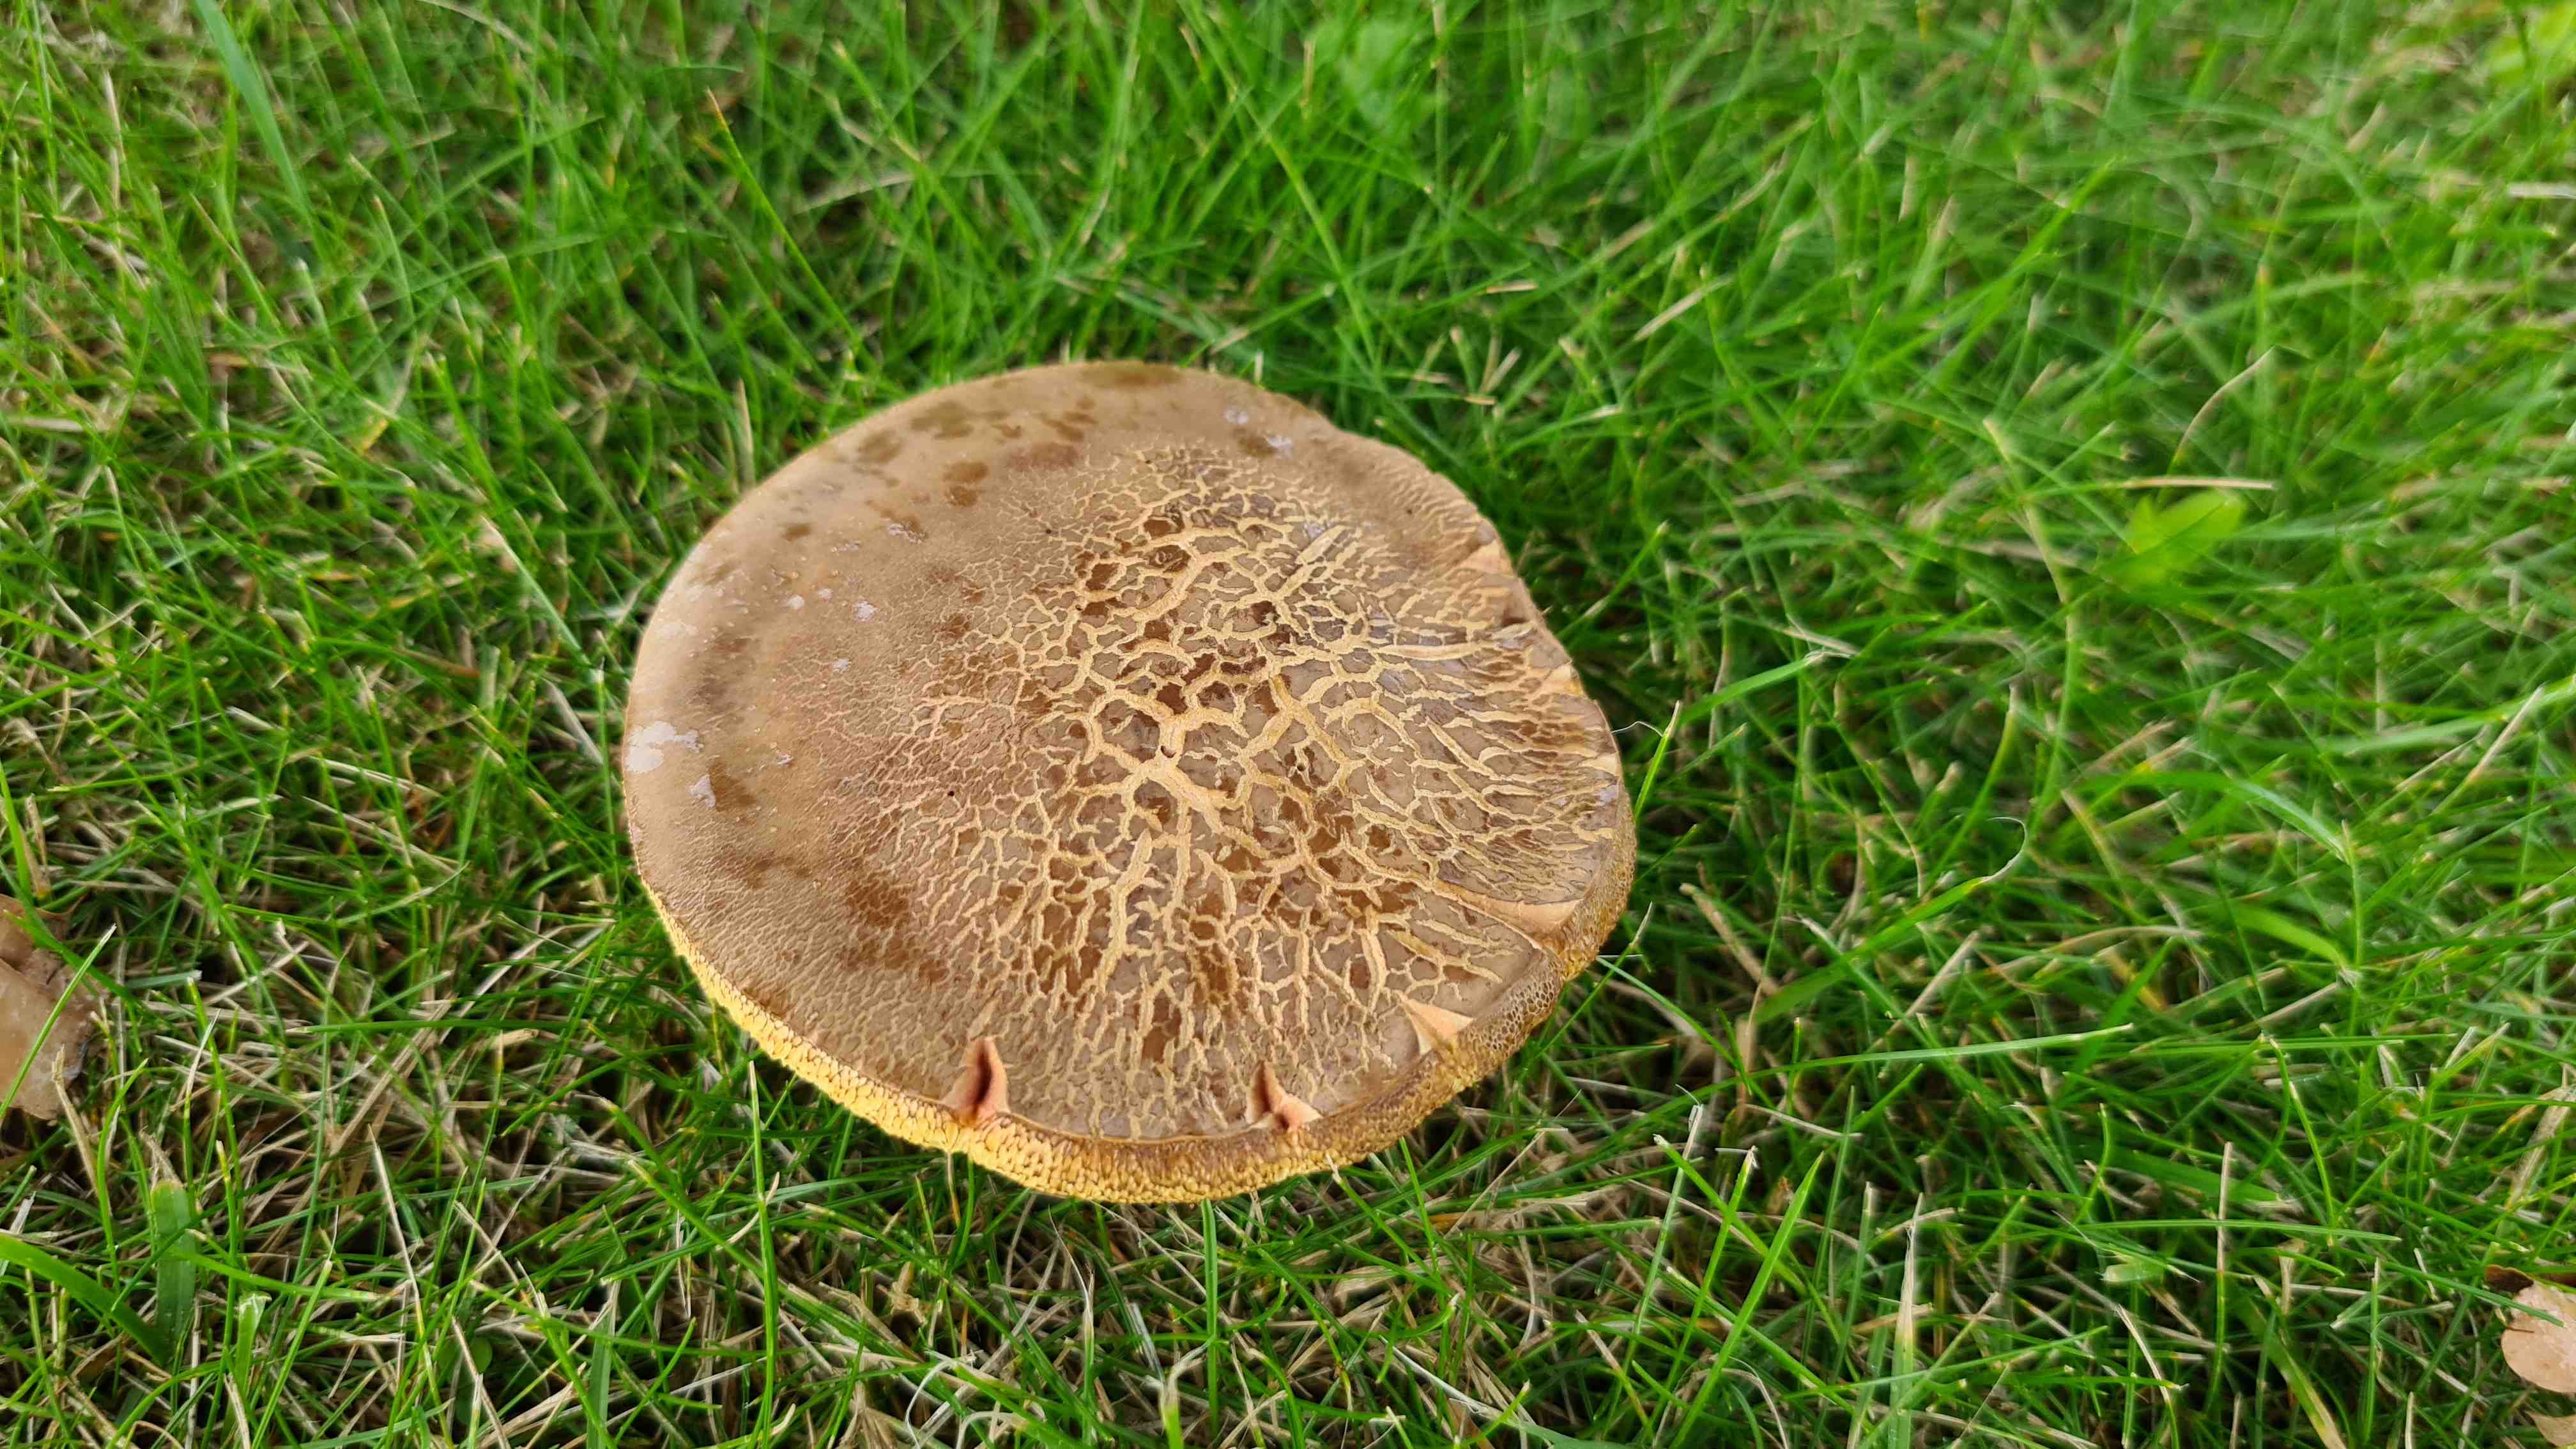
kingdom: Fungi
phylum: Basidiomycota
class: Agaricomycetes
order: Boletales
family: Boletaceae
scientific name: Boletaceae
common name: rørhatfamilien
